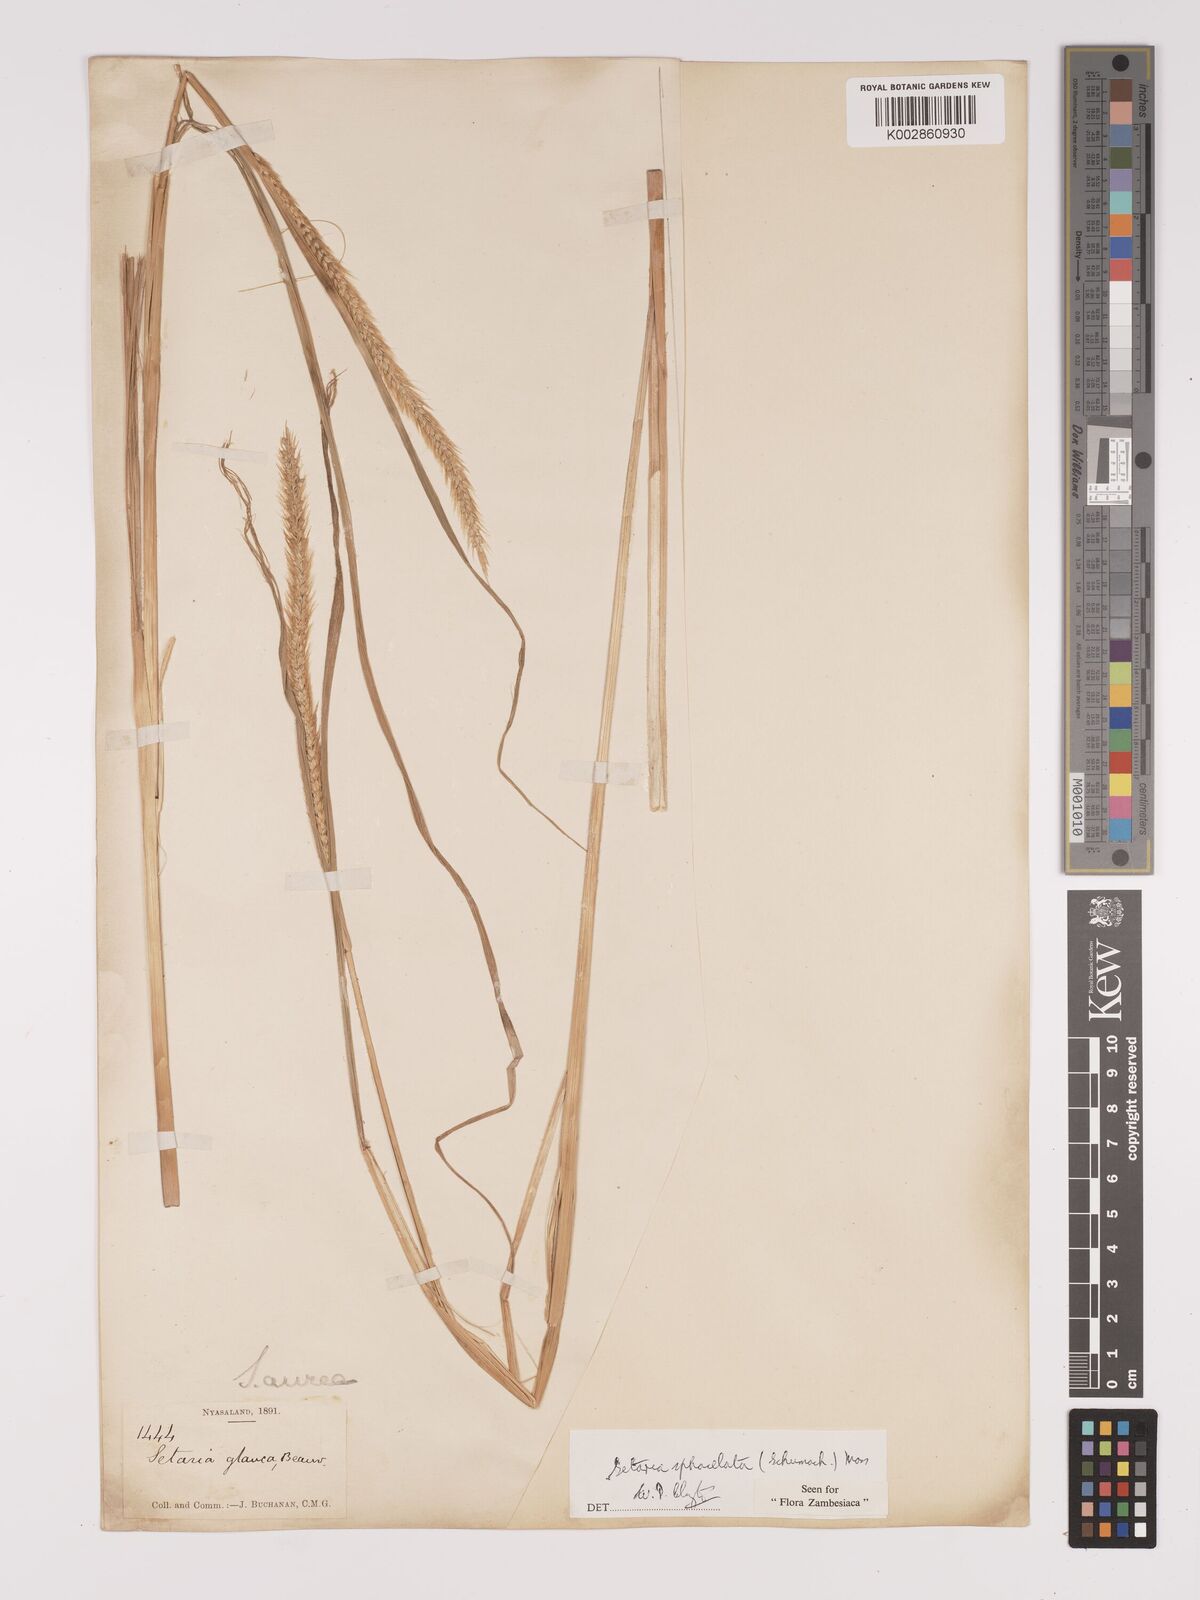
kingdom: Plantae
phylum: Tracheophyta
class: Liliopsida
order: Poales
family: Poaceae
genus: Setaria
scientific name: Setaria sphacelata
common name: African bristlegrass
